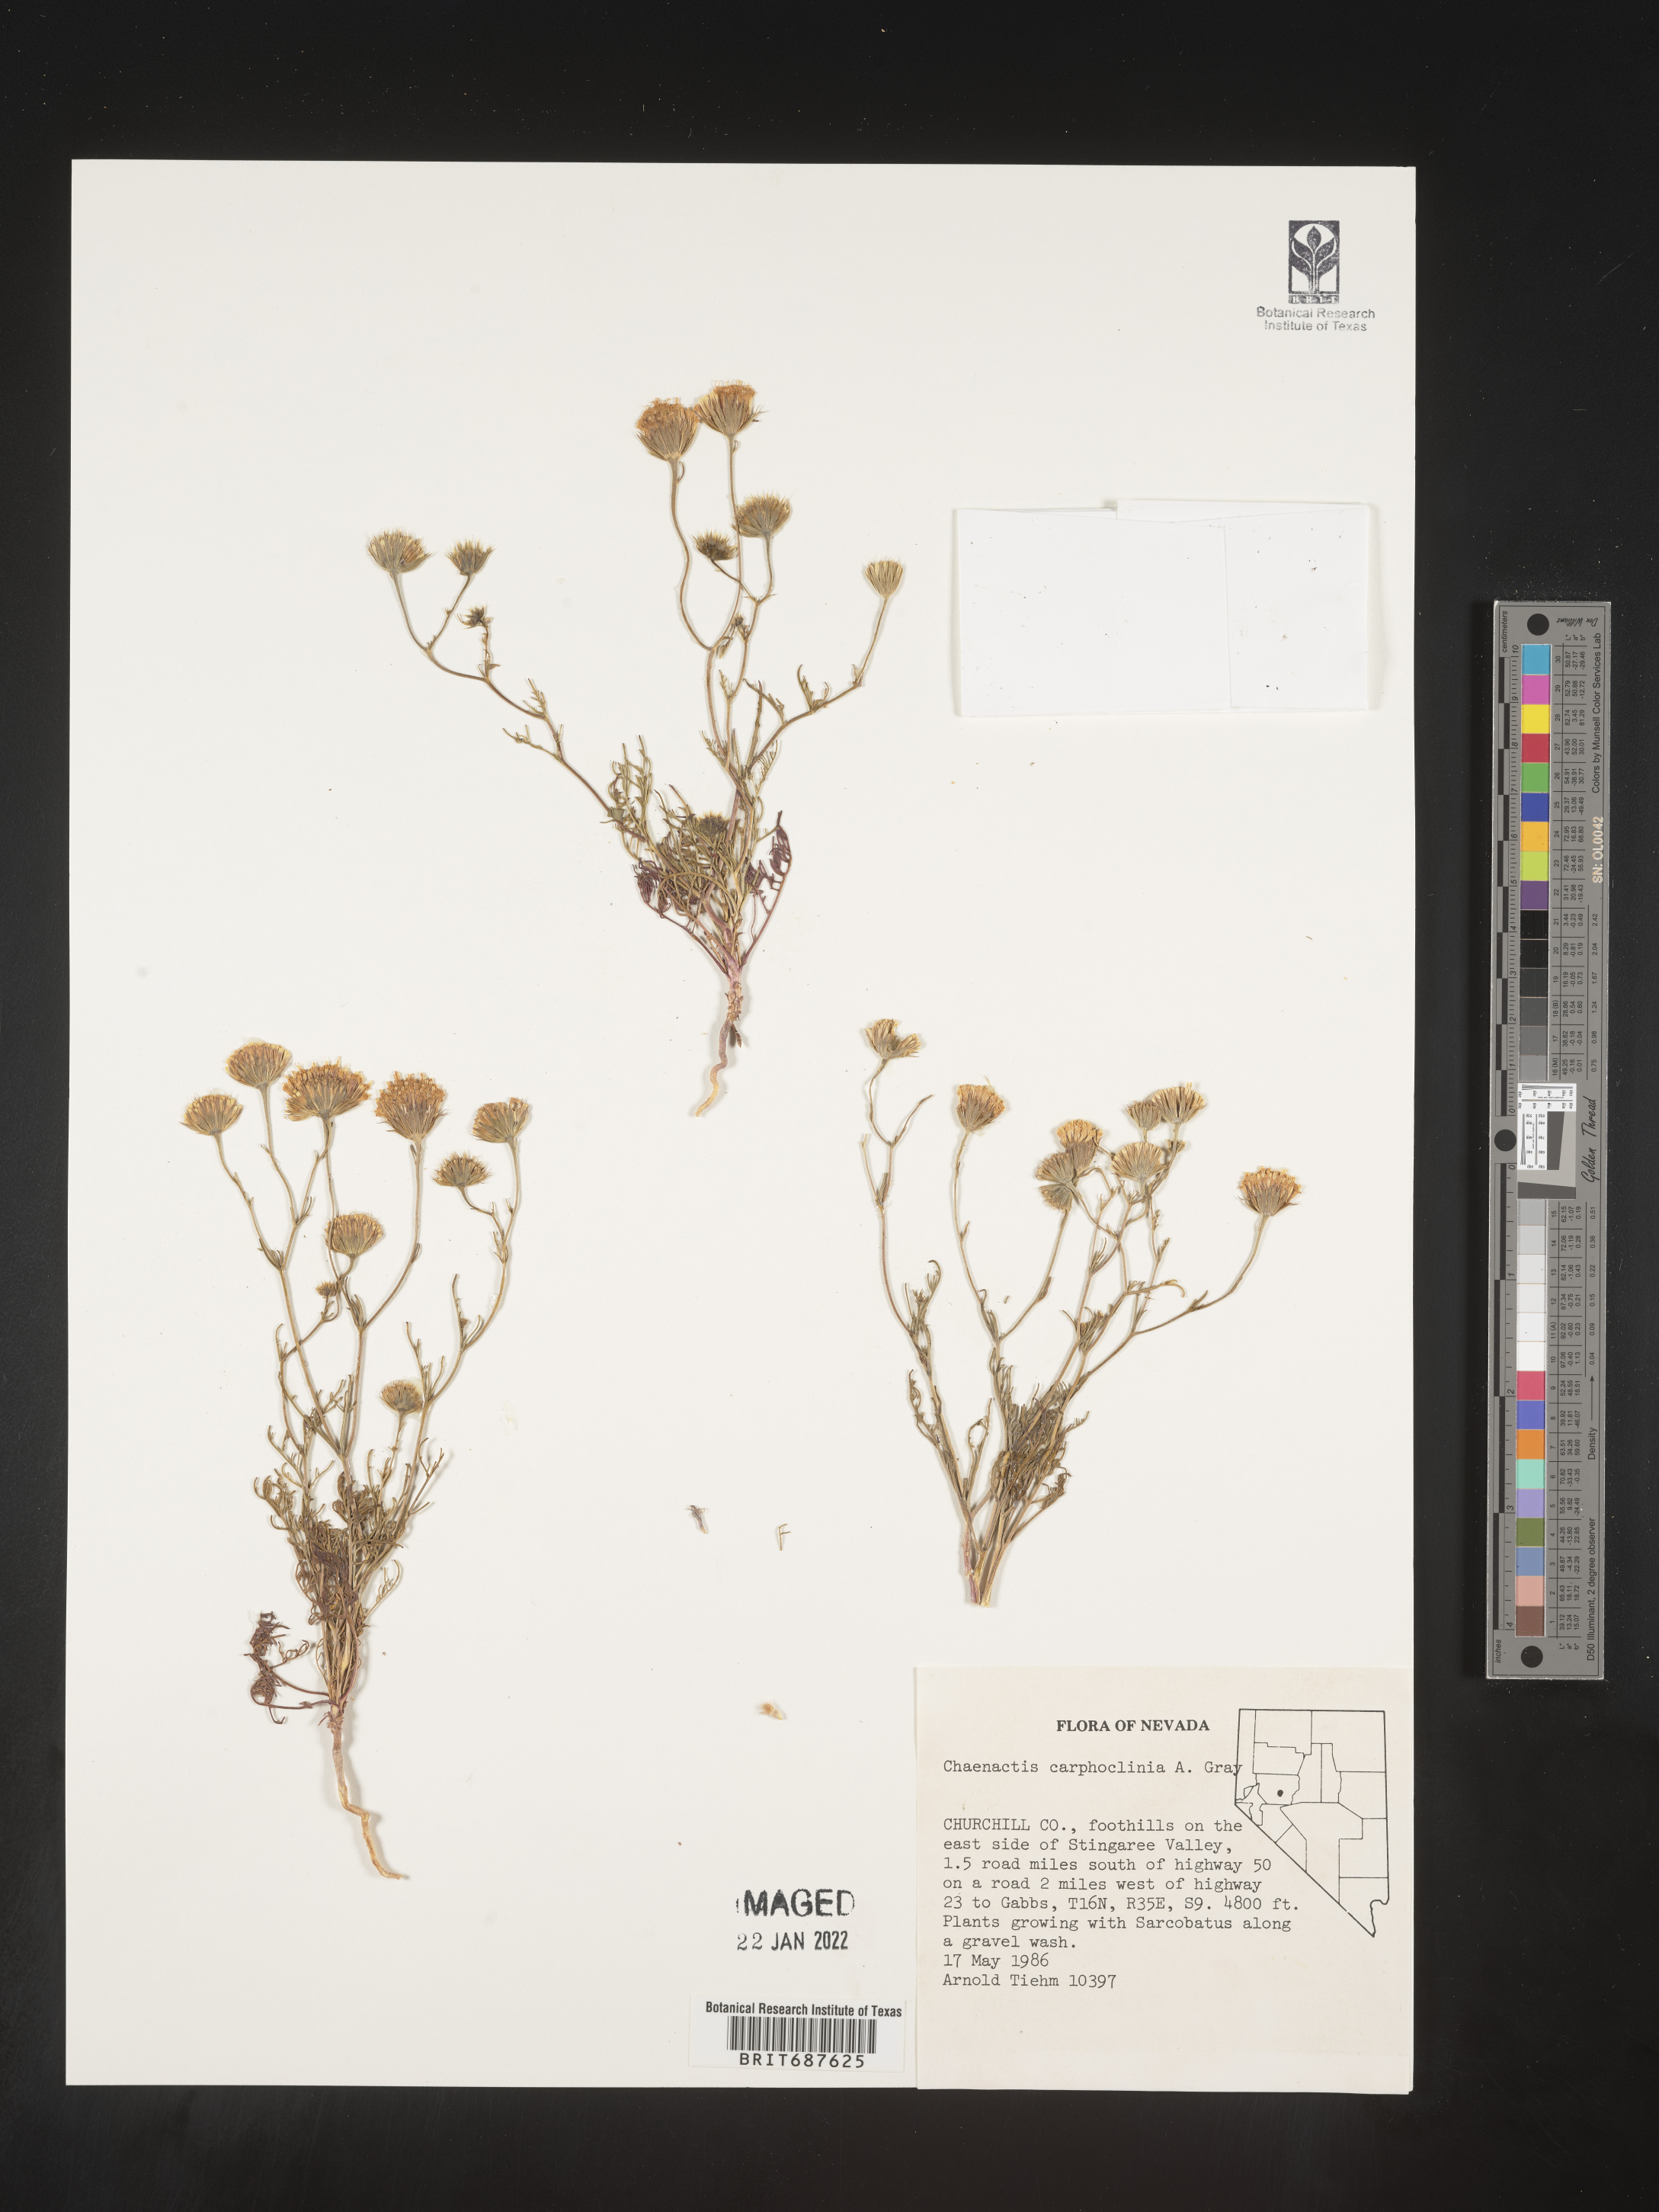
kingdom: Plantae
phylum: Tracheophyta
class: Magnoliopsida
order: Asterales
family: Asteraceae
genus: Chaenactis
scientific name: Chaenactis carphoclinia
